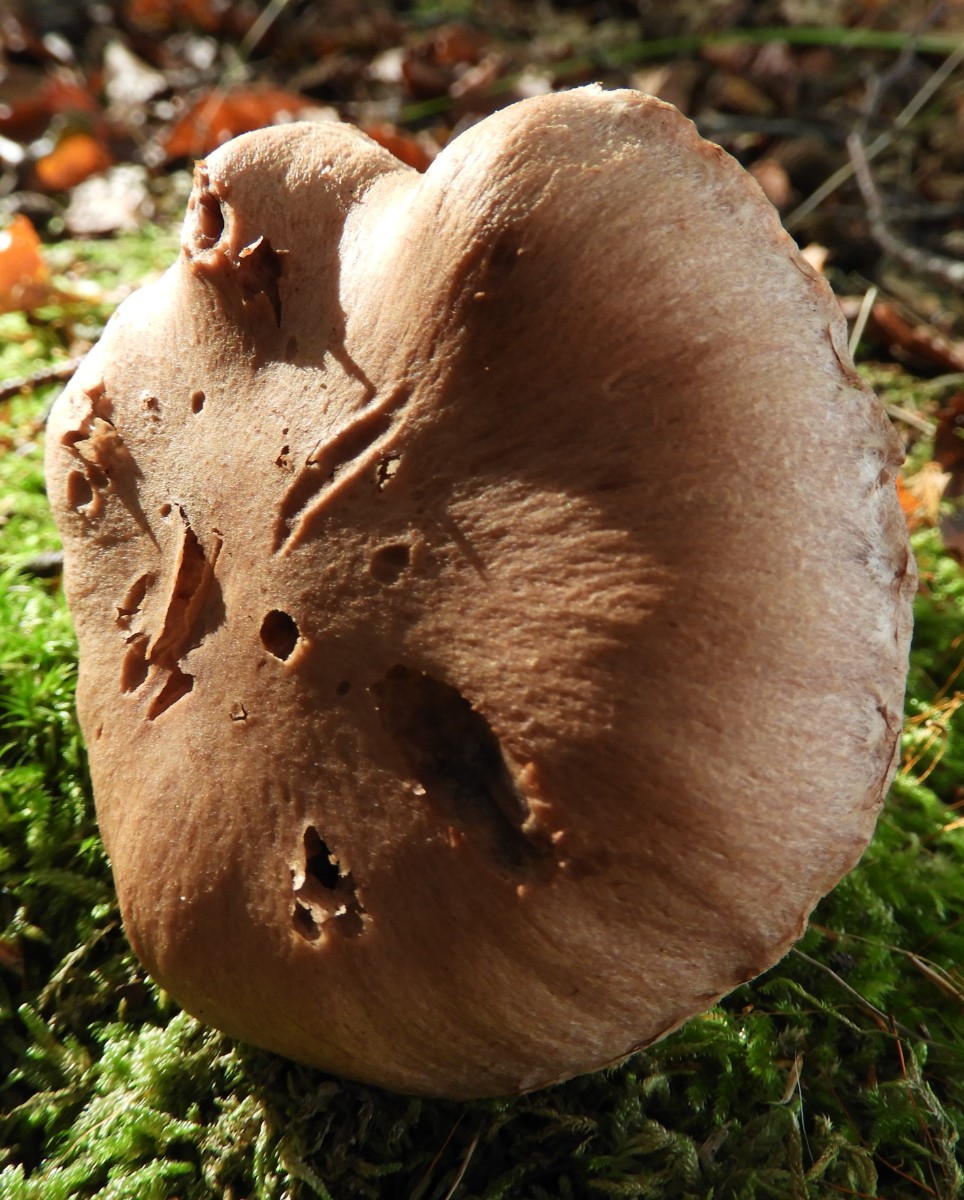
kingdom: Fungi
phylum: Basidiomycota
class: Agaricomycetes
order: Agaricales
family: Cortinariaceae
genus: Cortinarius
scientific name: Cortinarius
